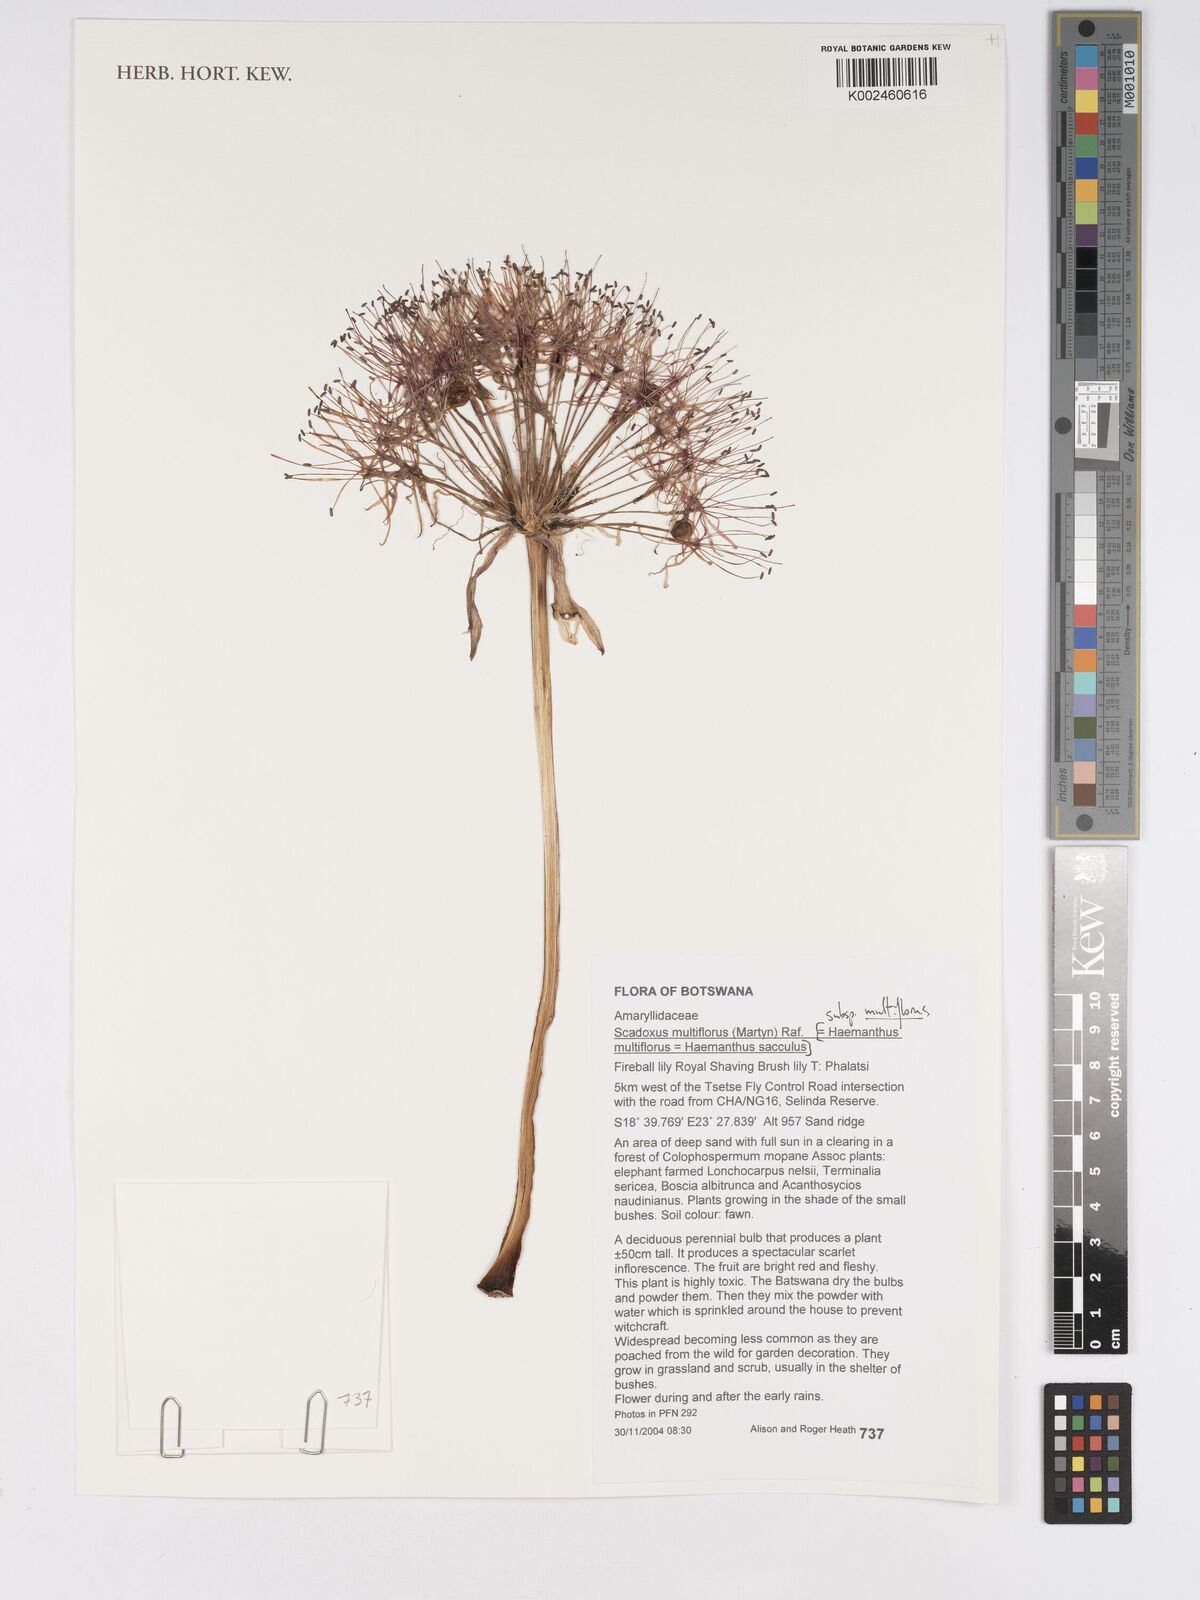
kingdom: Plantae
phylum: Tracheophyta
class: Liliopsida
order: Asparagales
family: Amaryllidaceae
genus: Scadoxus
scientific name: Scadoxus multiflorus
